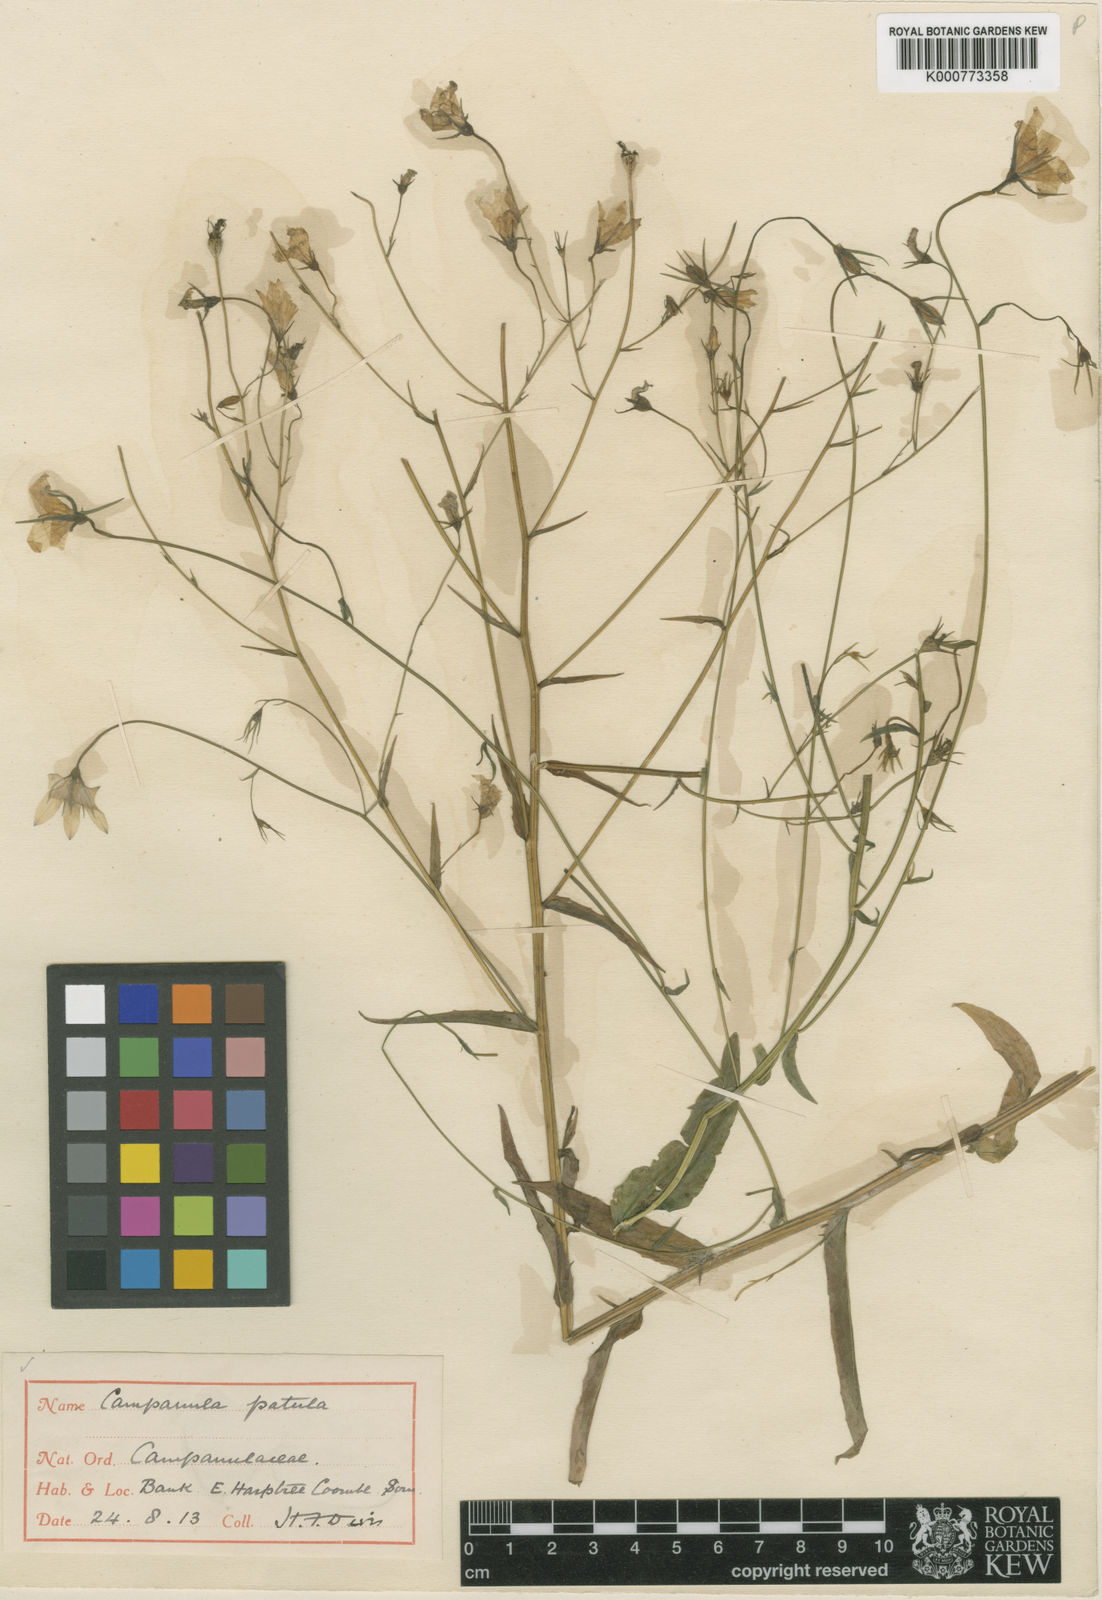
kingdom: Plantae
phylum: Tracheophyta
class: Magnoliopsida
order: Asterales
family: Campanulaceae
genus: Campanula
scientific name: Campanula patula
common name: Spreading bellflower
